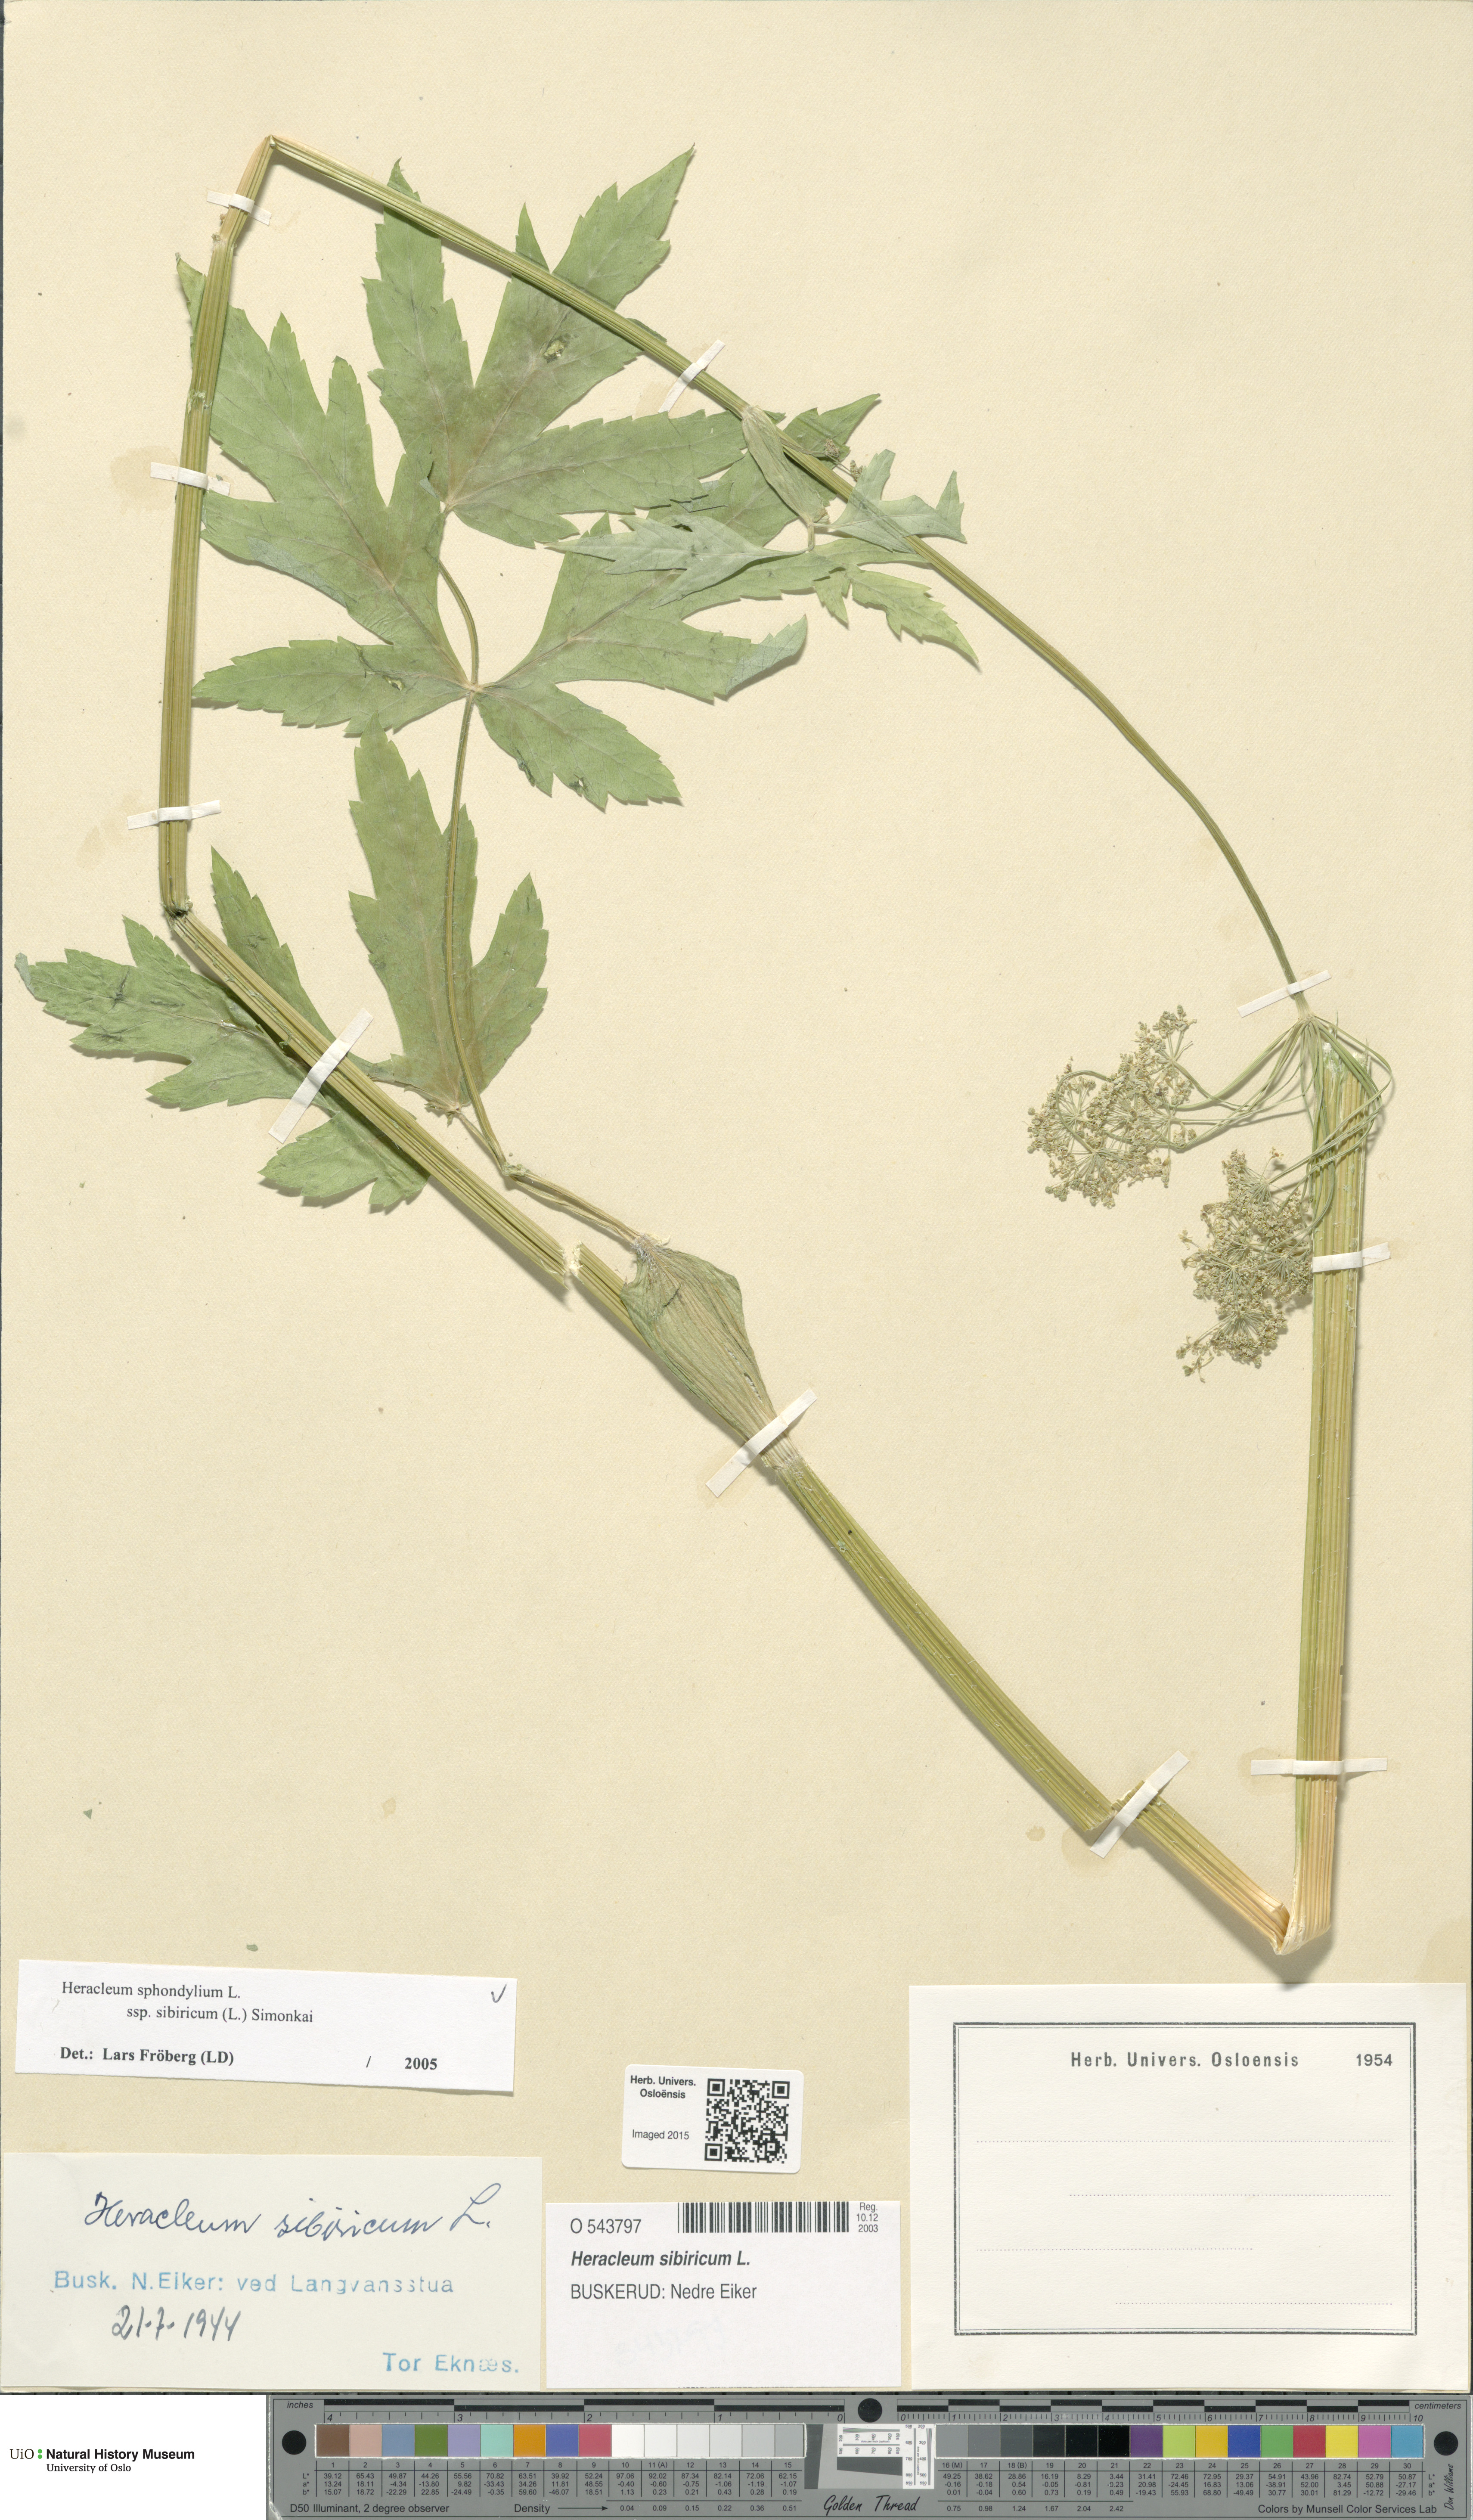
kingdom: Plantae
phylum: Tracheophyta
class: Magnoliopsida
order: Apiales
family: Apiaceae
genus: Heracleum
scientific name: Heracleum sphondylium
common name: Hogweed
